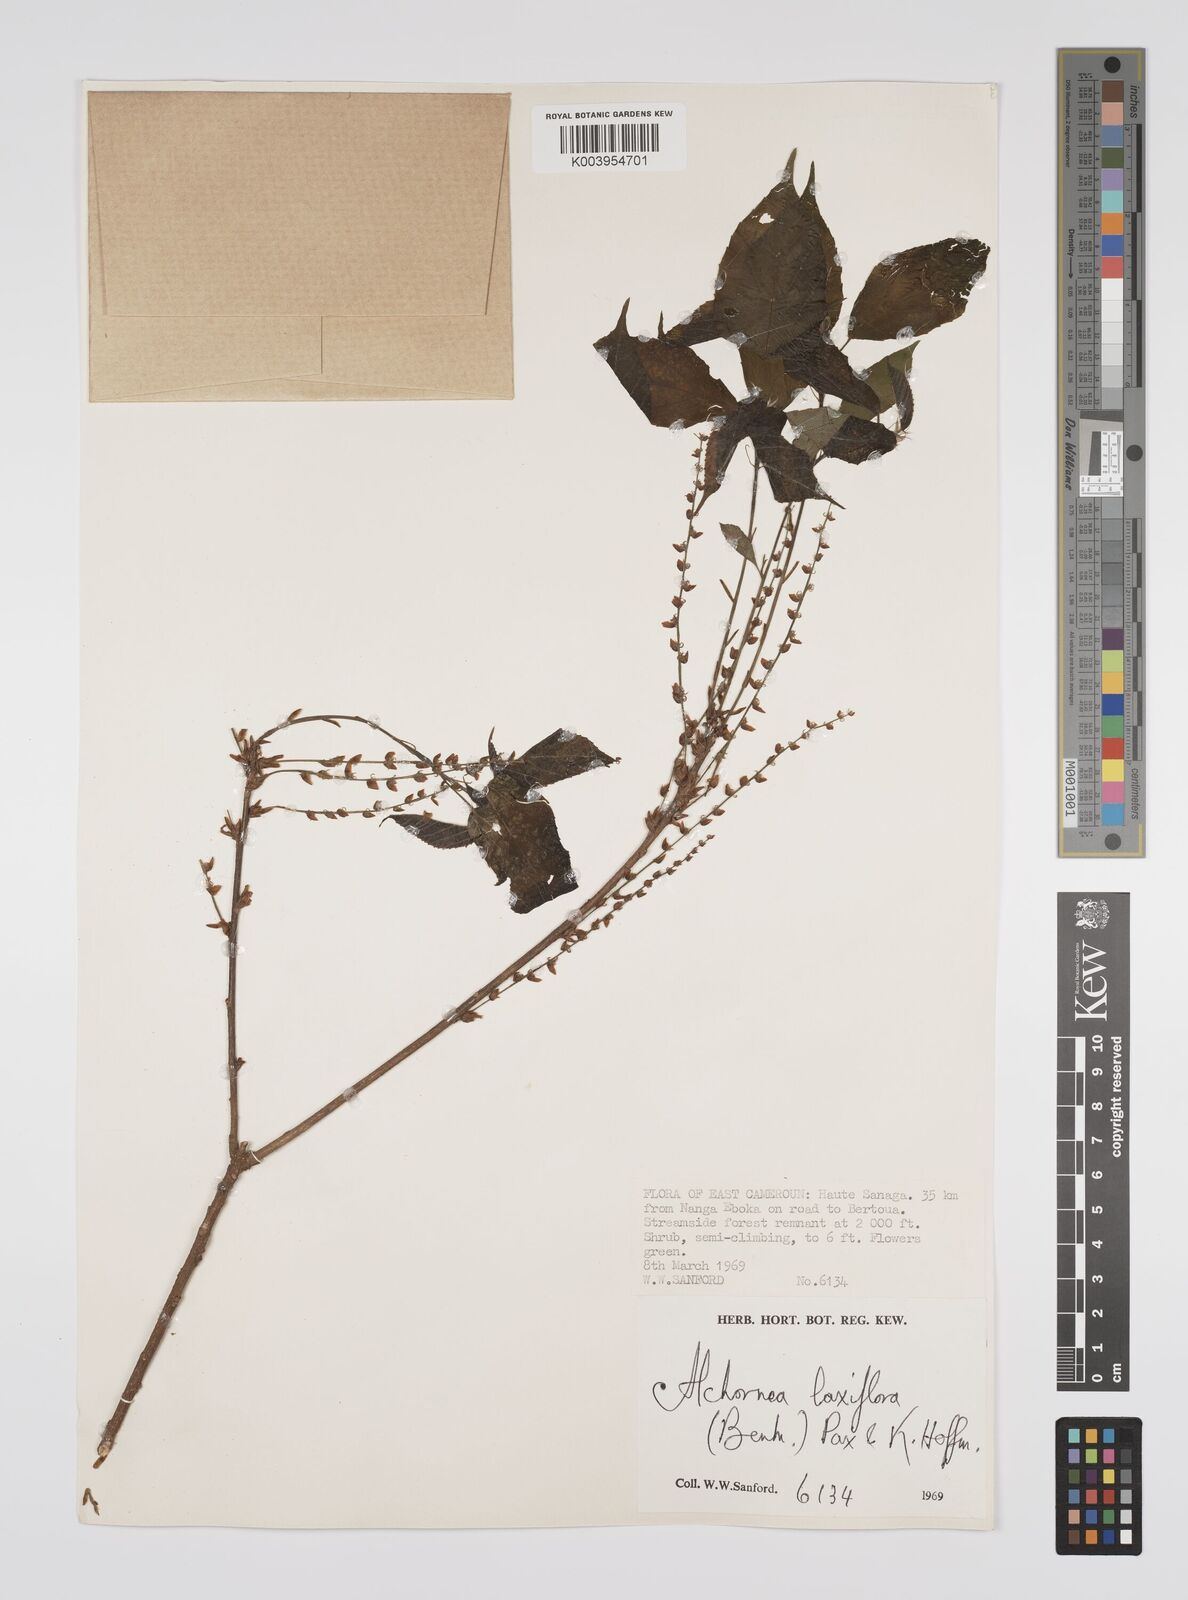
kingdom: Plantae
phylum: Tracheophyta
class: Magnoliopsida
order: Malpighiales
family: Euphorbiaceae
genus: Alchornea
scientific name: Alchornea laxiflora
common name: Lowveld bead-string
